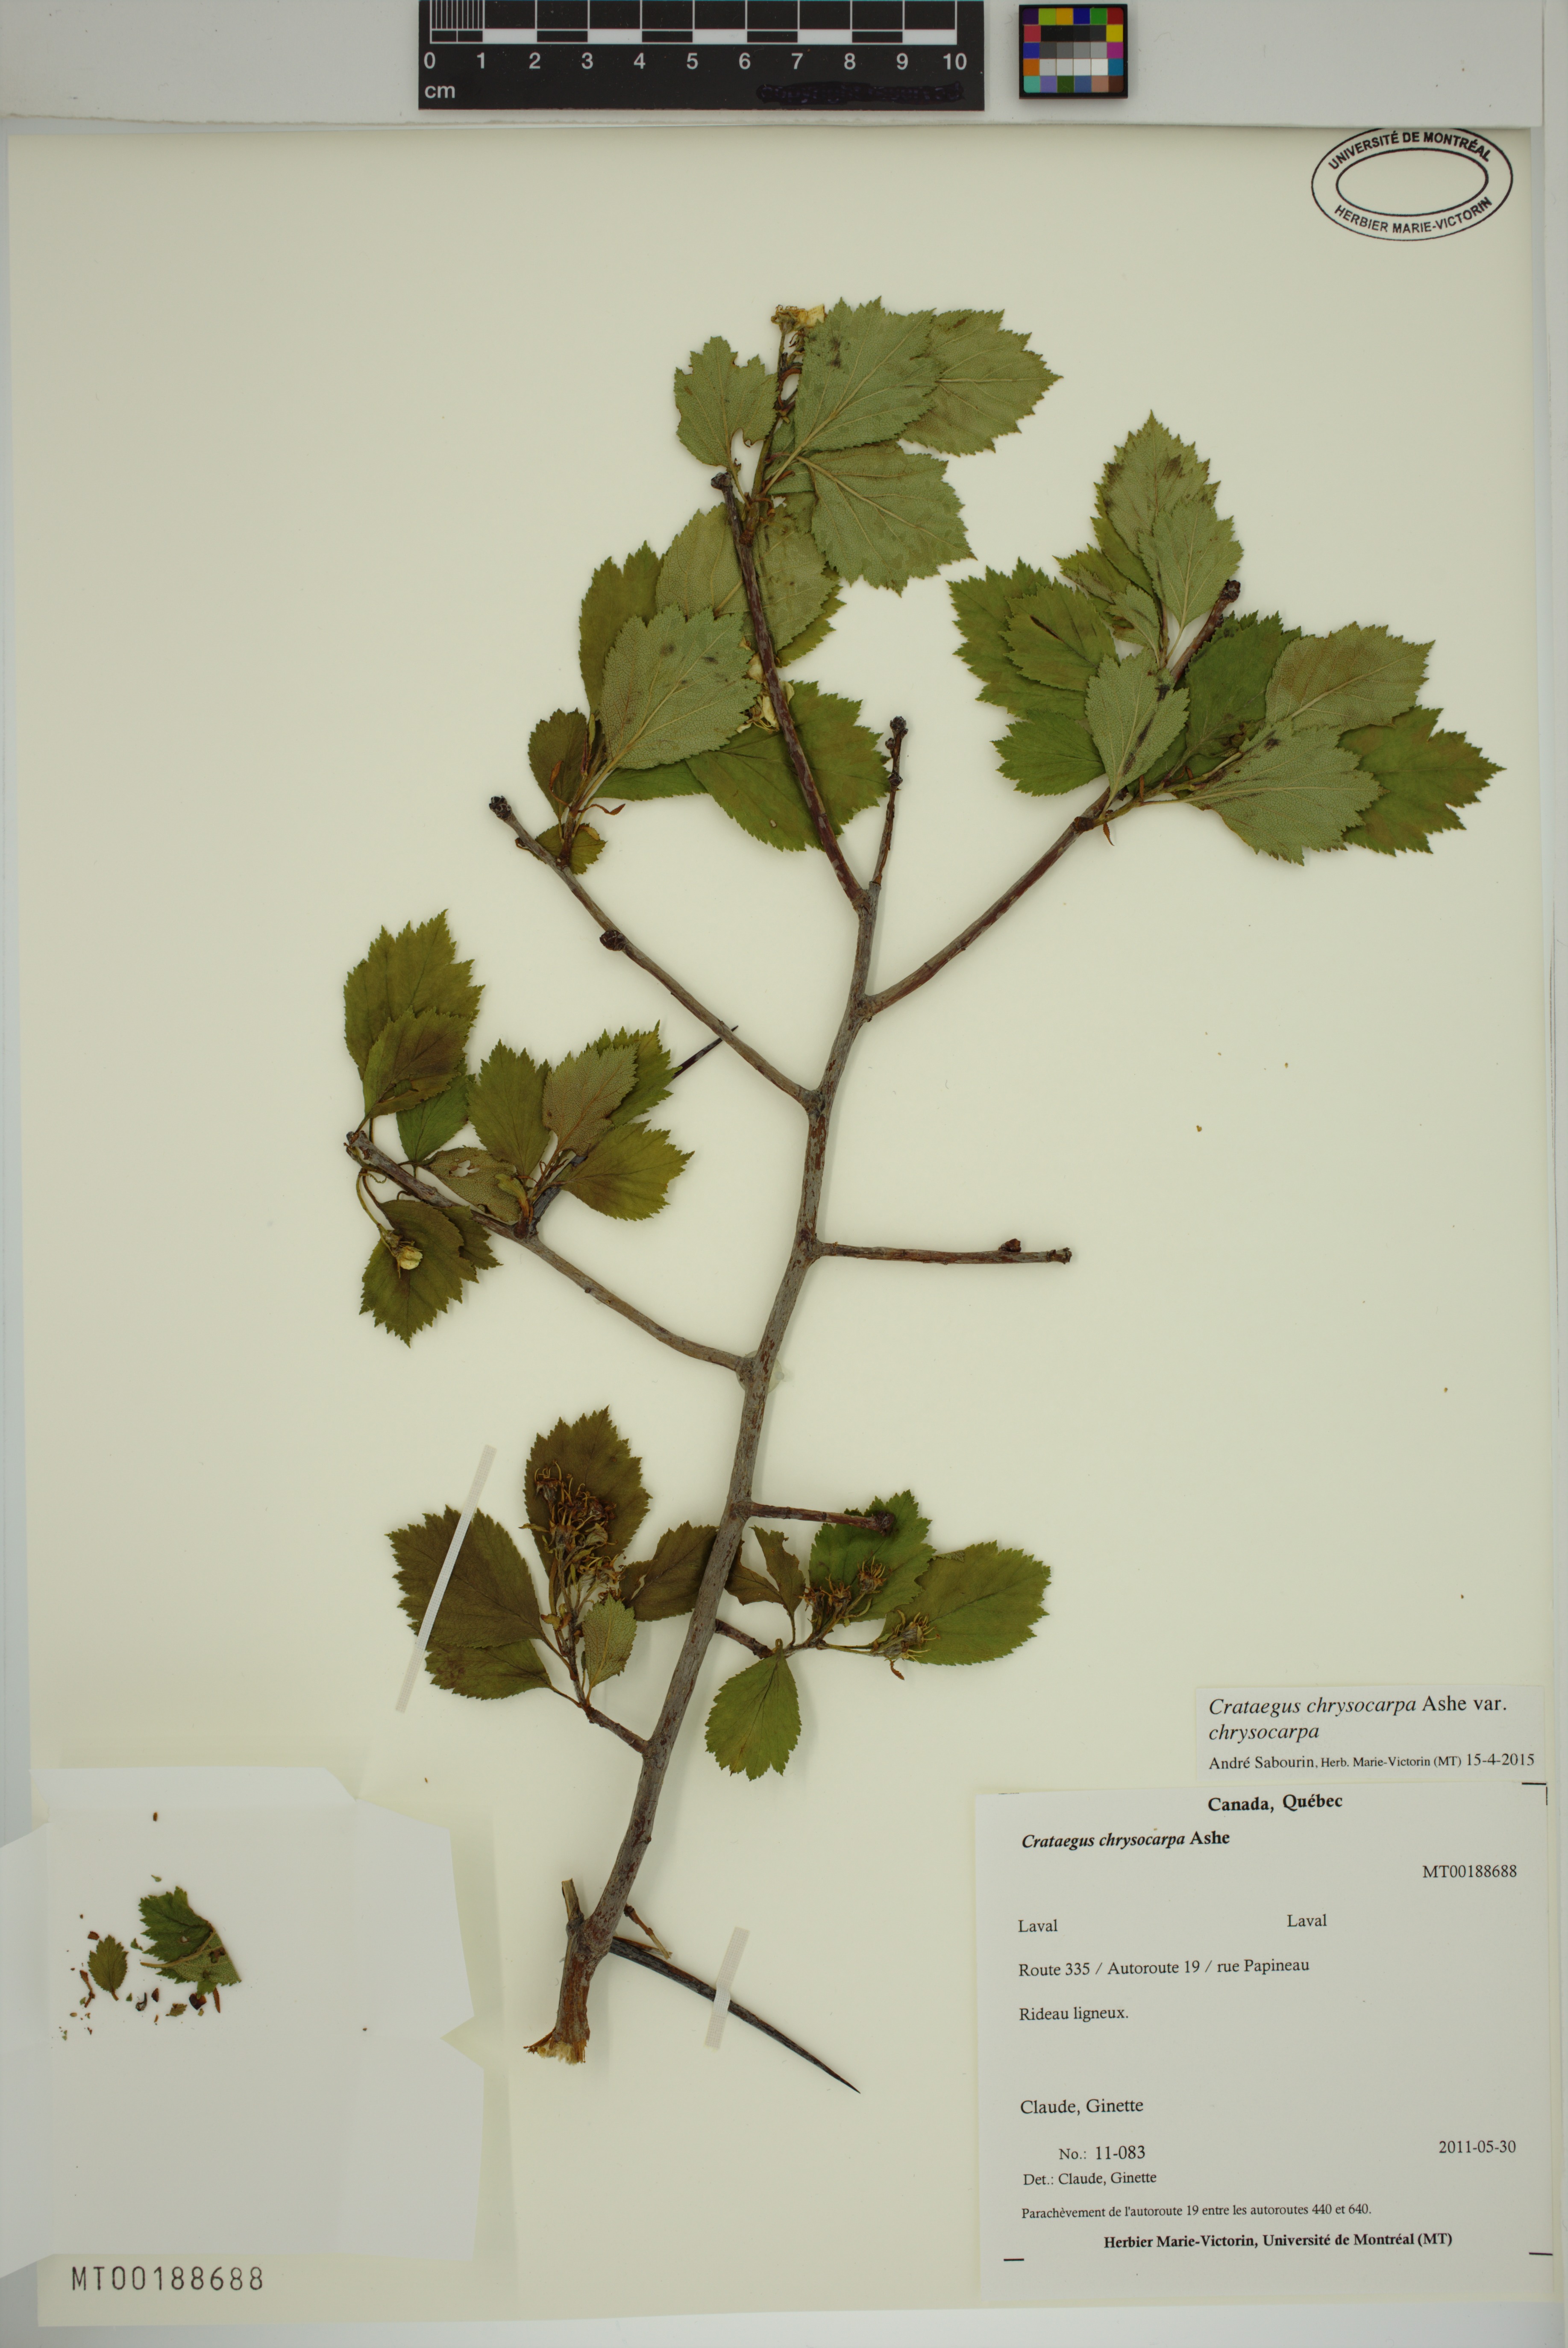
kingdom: Plantae
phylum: Tracheophyta
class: Magnoliopsida
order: Rosales
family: Rosaceae
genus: Crataegus
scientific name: Crataegus chrysocarpa
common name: Fire-berry hawthorn
